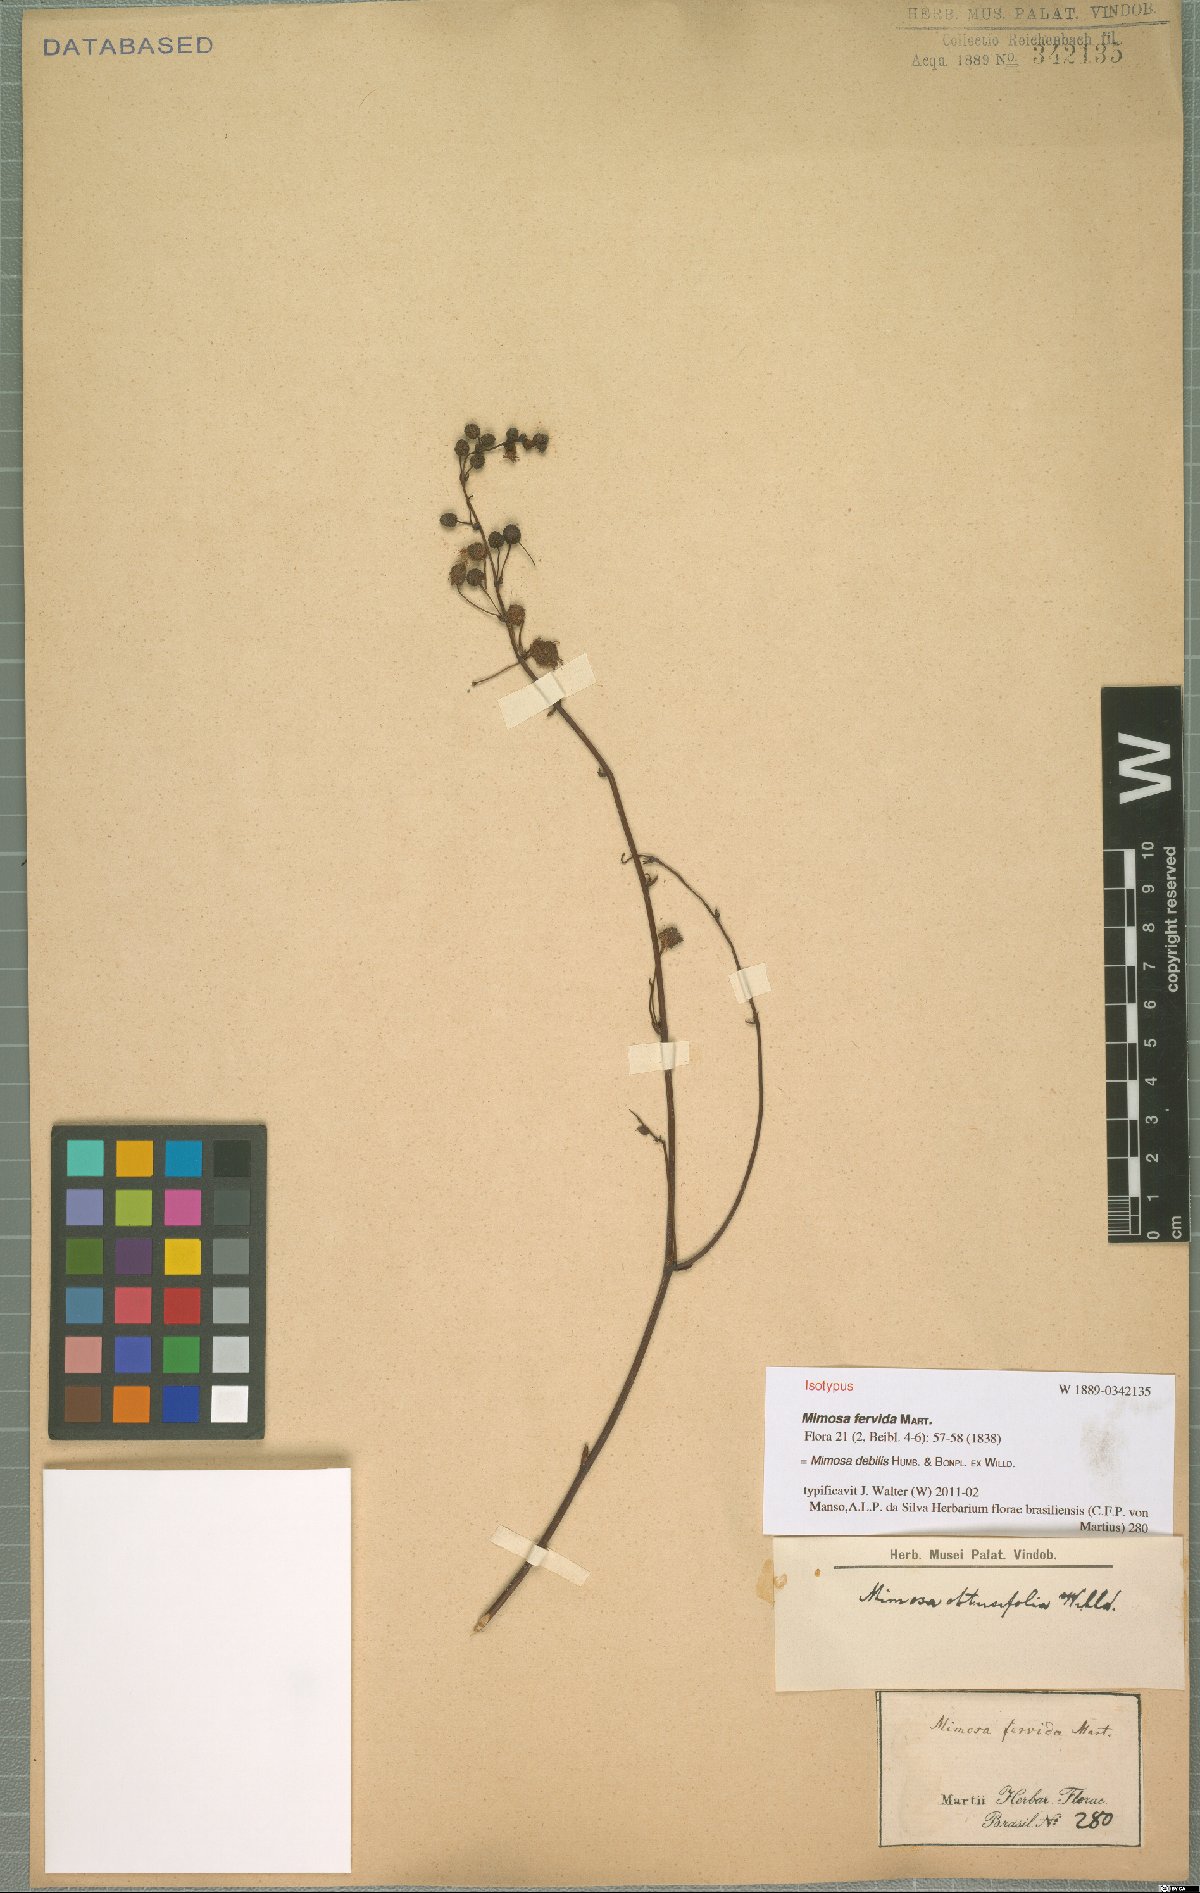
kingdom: Plantae
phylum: Tracheophyta
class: Magnoliopsida
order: Fabales
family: Fabaceae
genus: Mimosa
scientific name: Mimosa debilis
